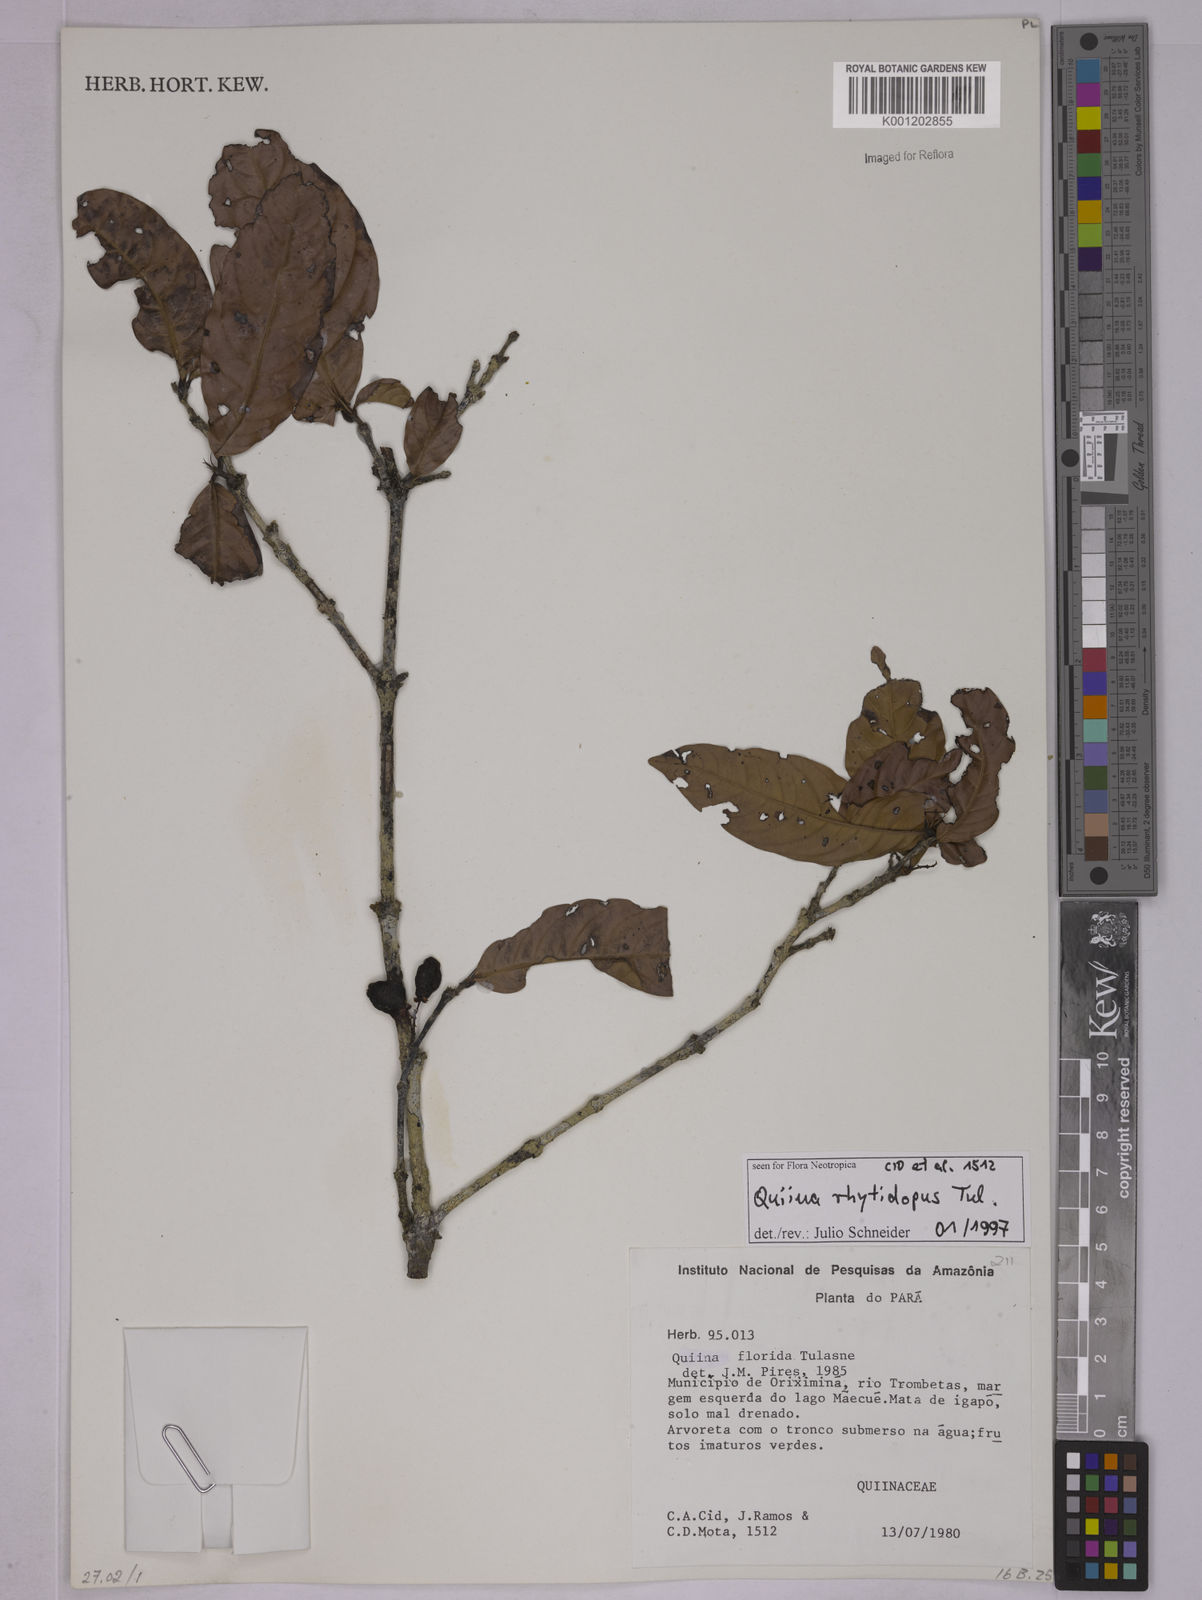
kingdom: Plantae
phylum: Tracheophyta
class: Magnoliopsida
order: Malpighiales
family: Quiinaceae
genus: Quiina
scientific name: Quiina rhytidopus
